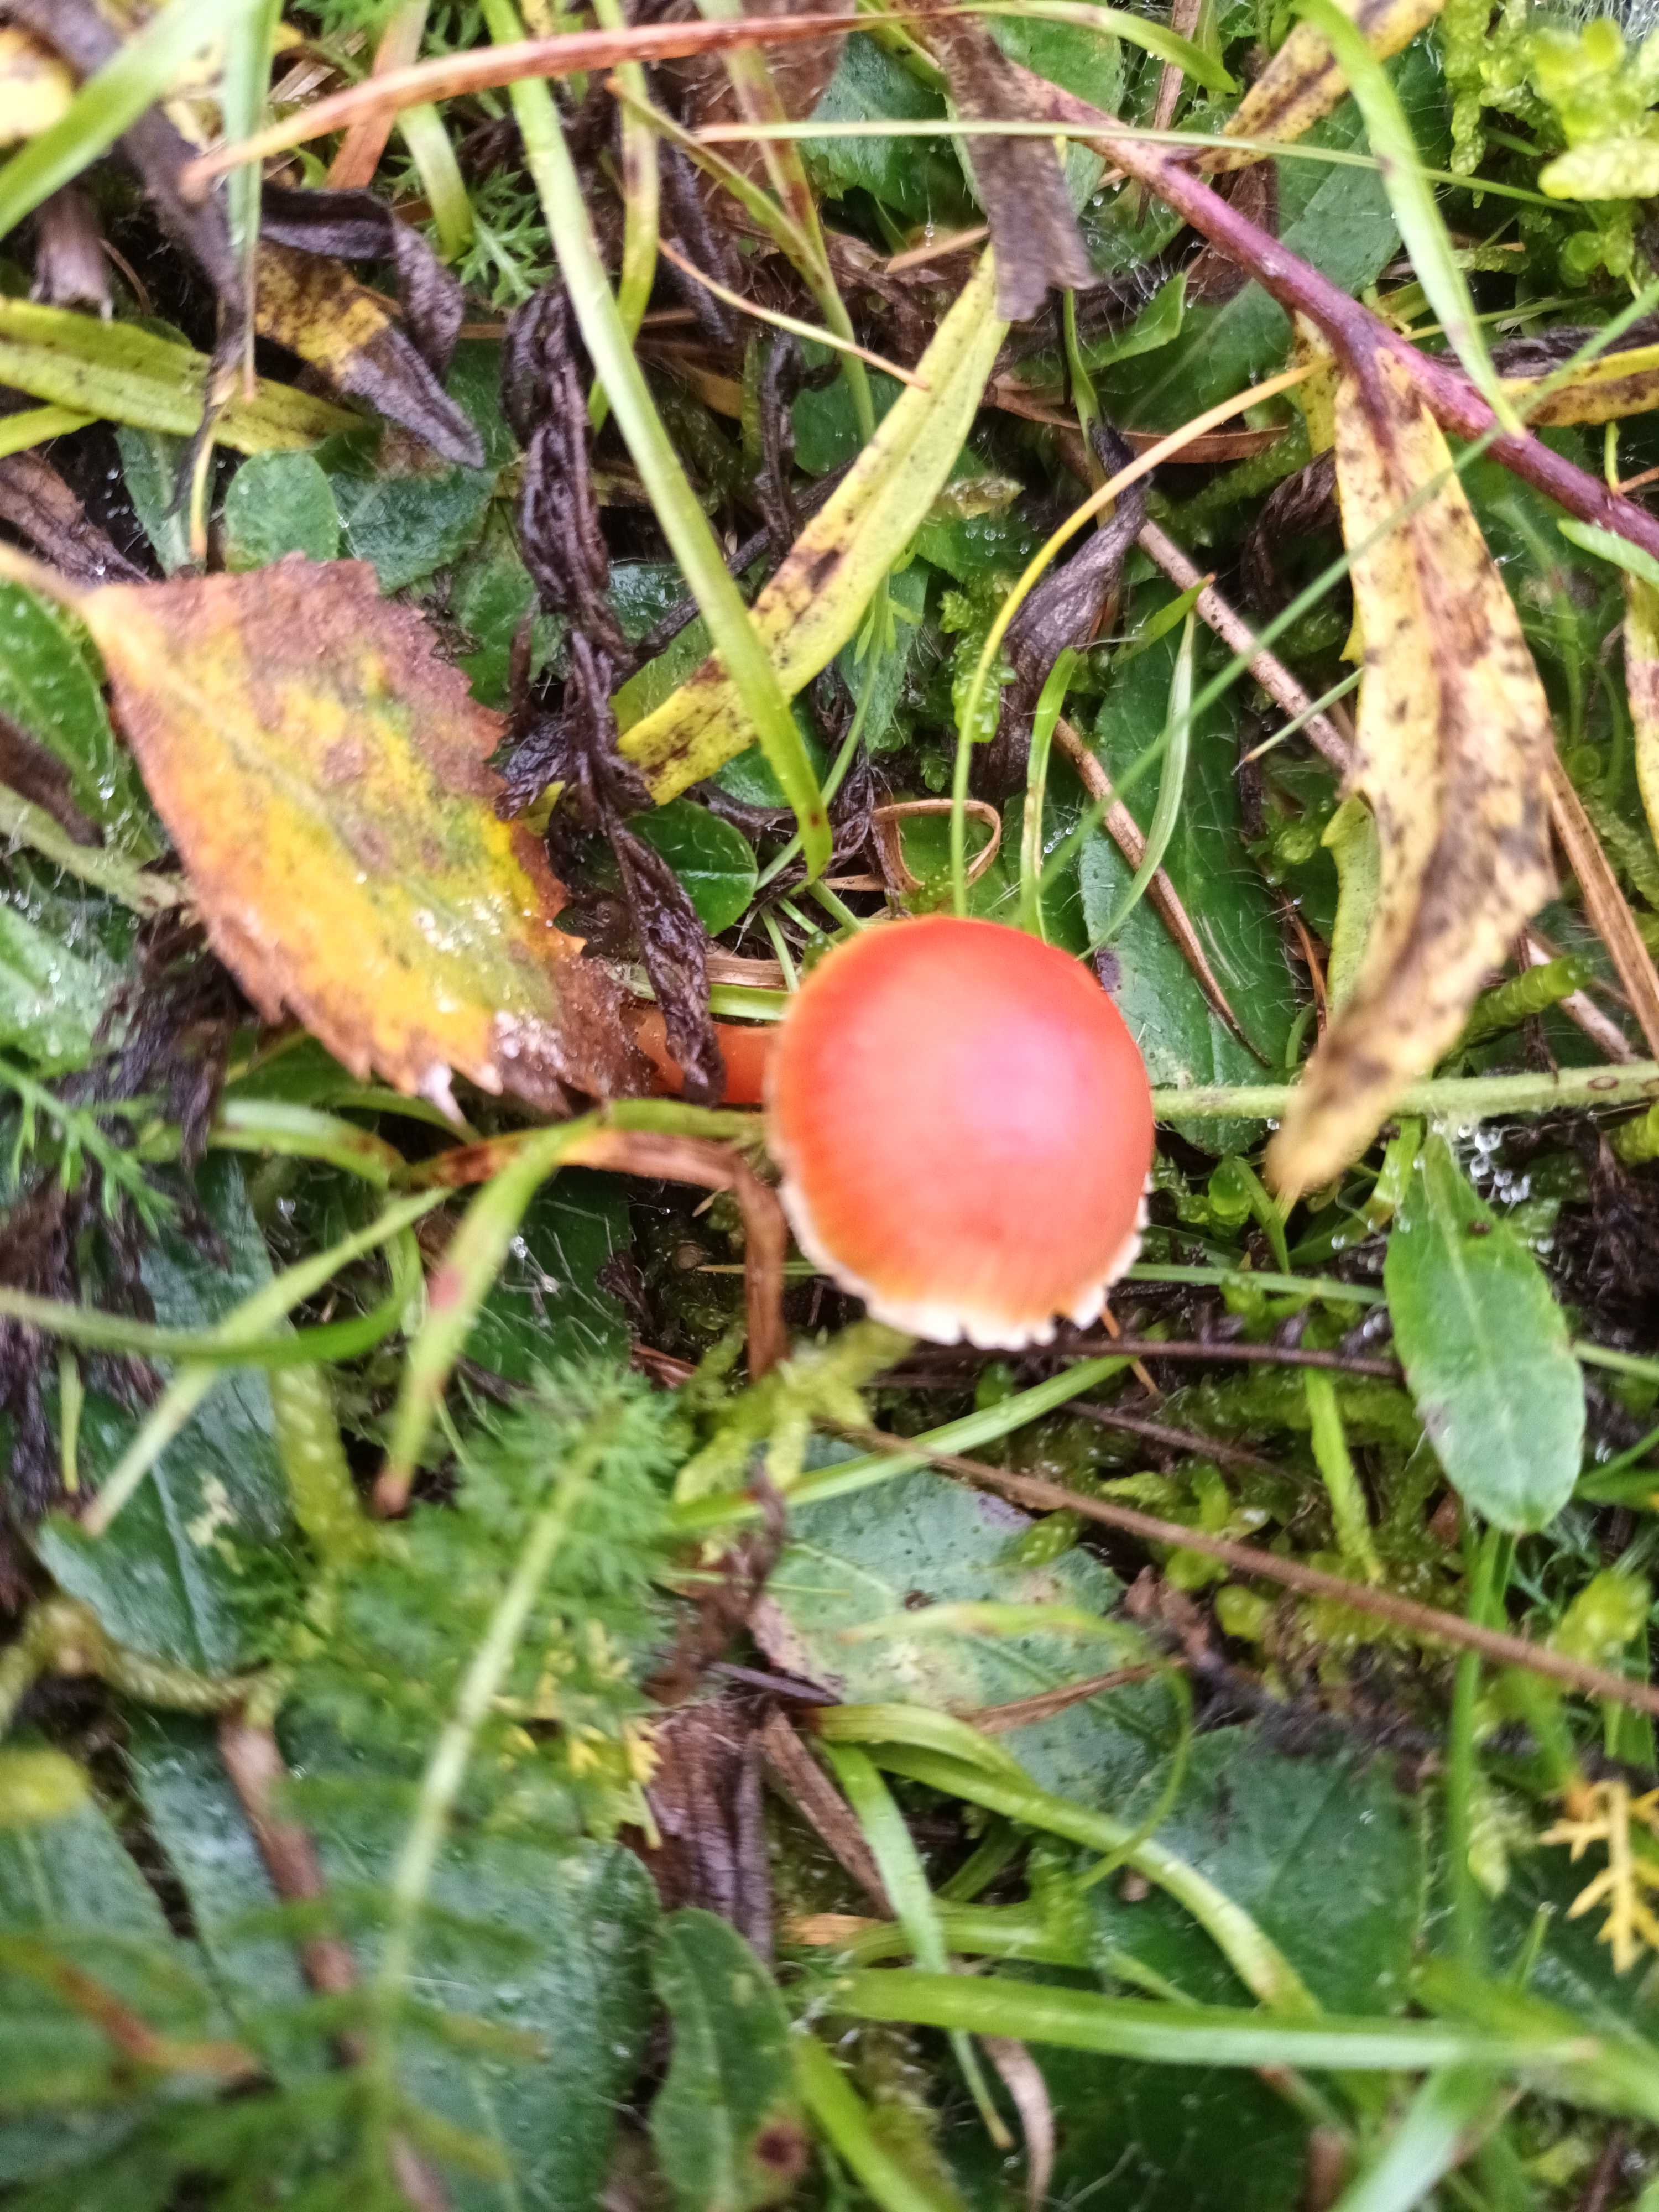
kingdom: Fungi
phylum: Basidiomycota
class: Agaricomycetes
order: Agaricales
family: Hygrophoraceae
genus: Hygrocybe
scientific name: Hygrocybe miniata
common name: mønje-vokshat
